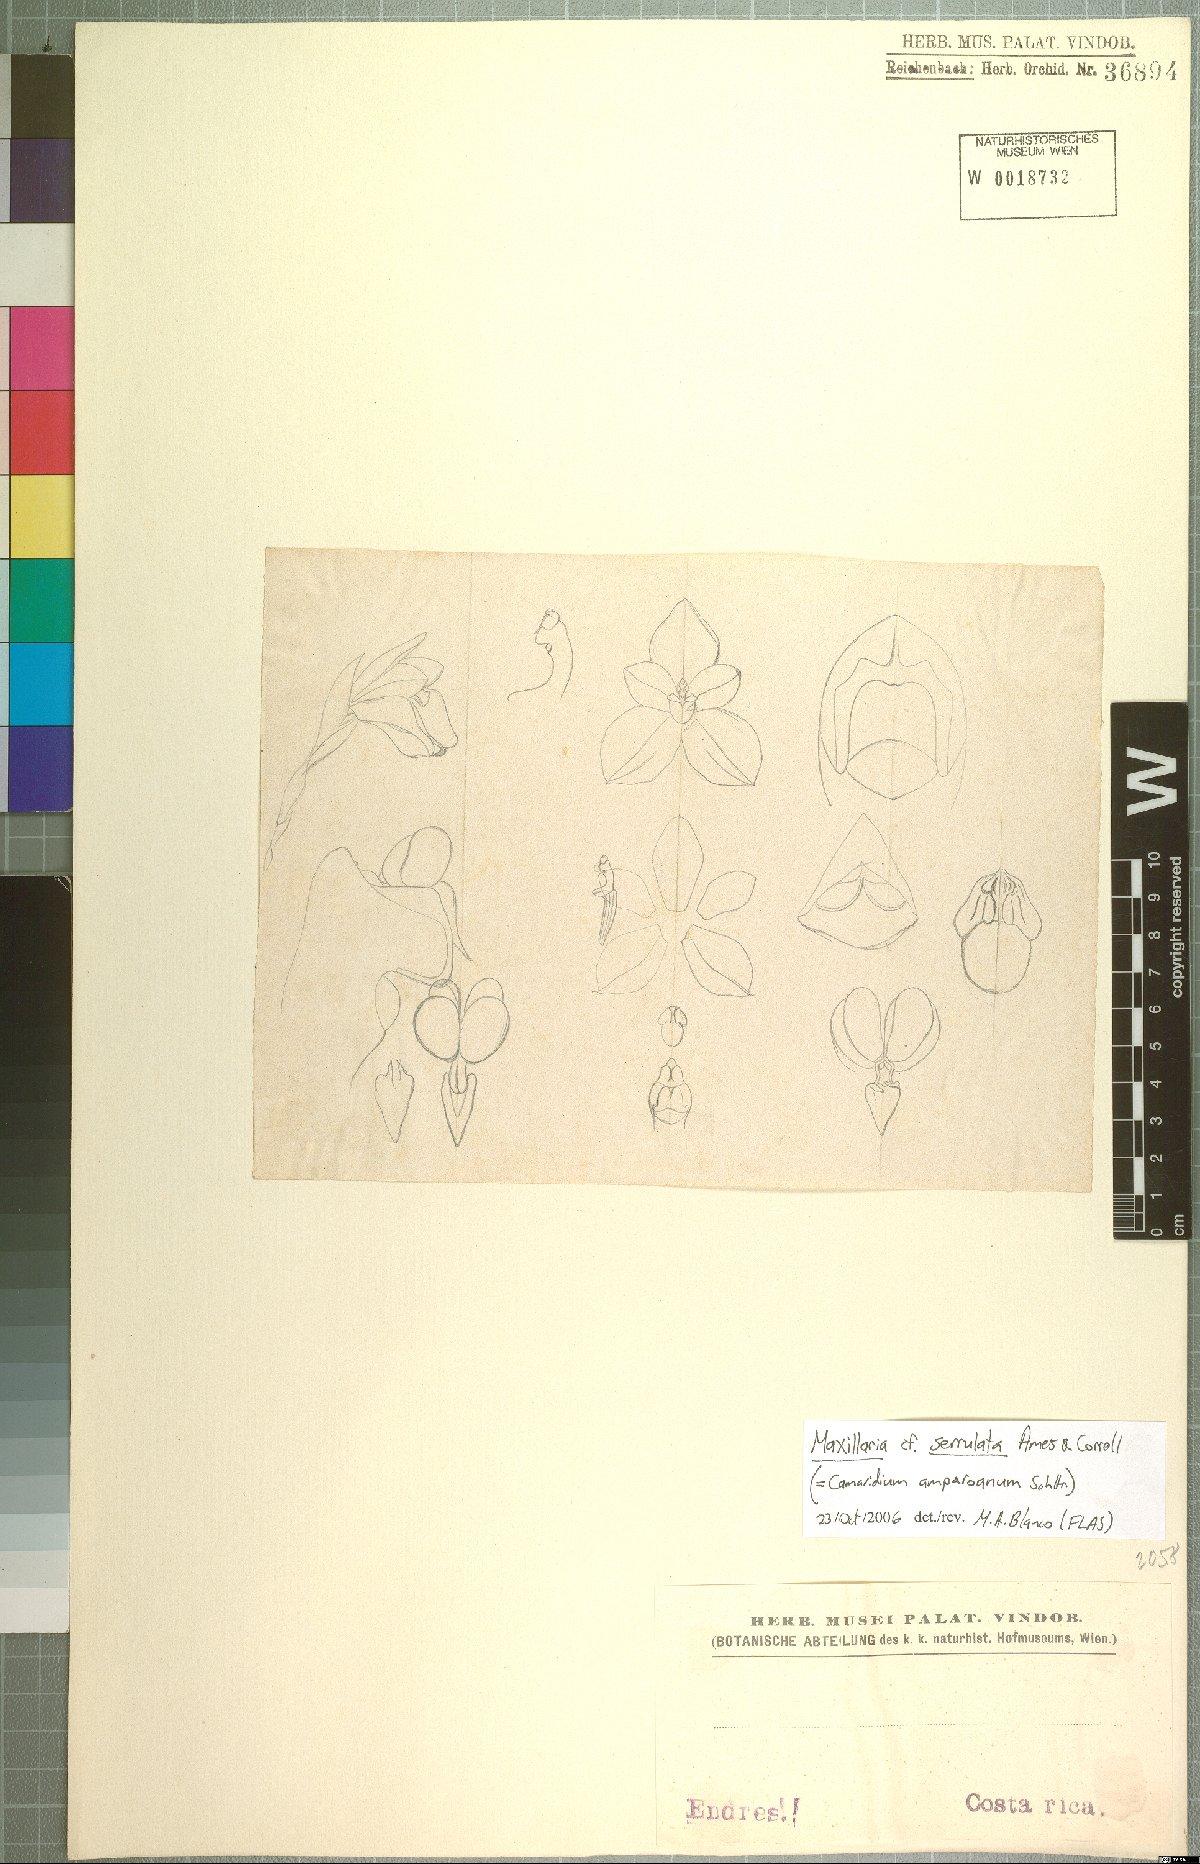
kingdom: Plantae
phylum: Tracheophyta
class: Liliopsida
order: Asparagales
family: Orchidaceae
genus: Maxillaria
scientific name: Maxillaria serrulata
